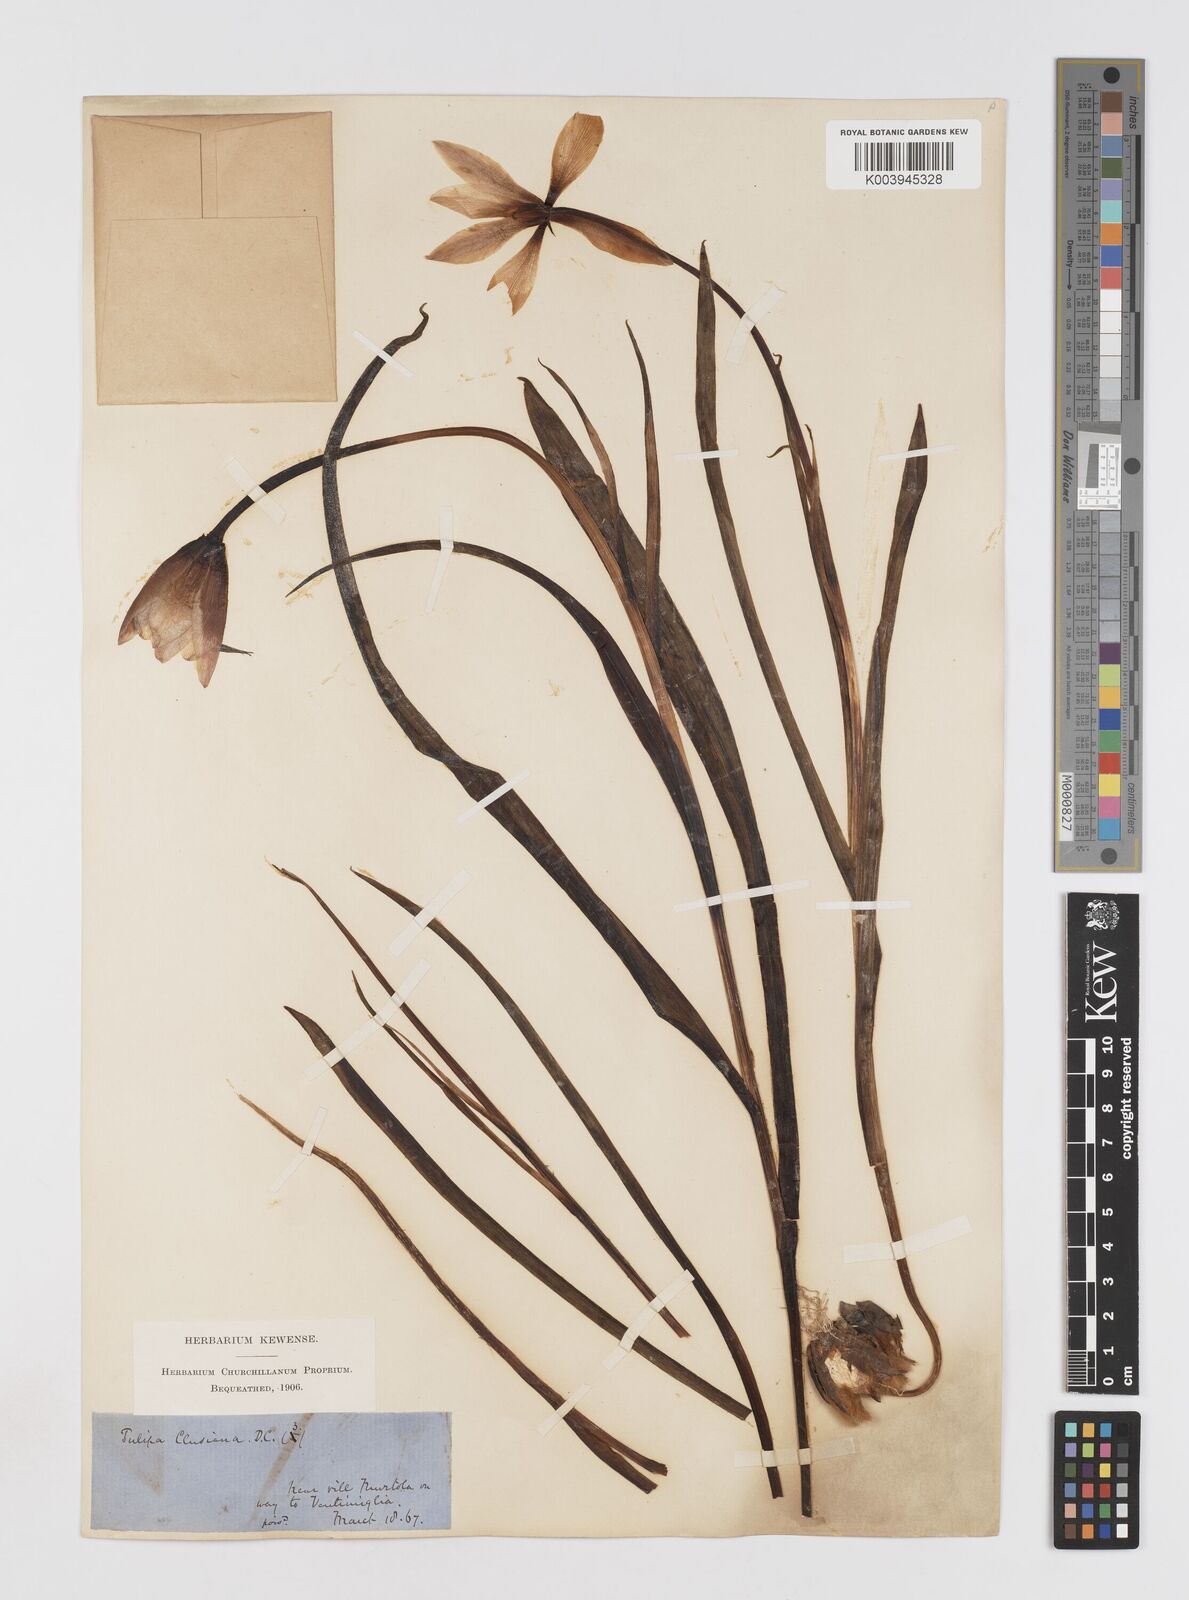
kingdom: Plantae
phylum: Tracheophyta
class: Liliopsida
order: Liliales
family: Liliaceae
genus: Tulipa
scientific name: Tulipa clusiana
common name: Lady tulip
